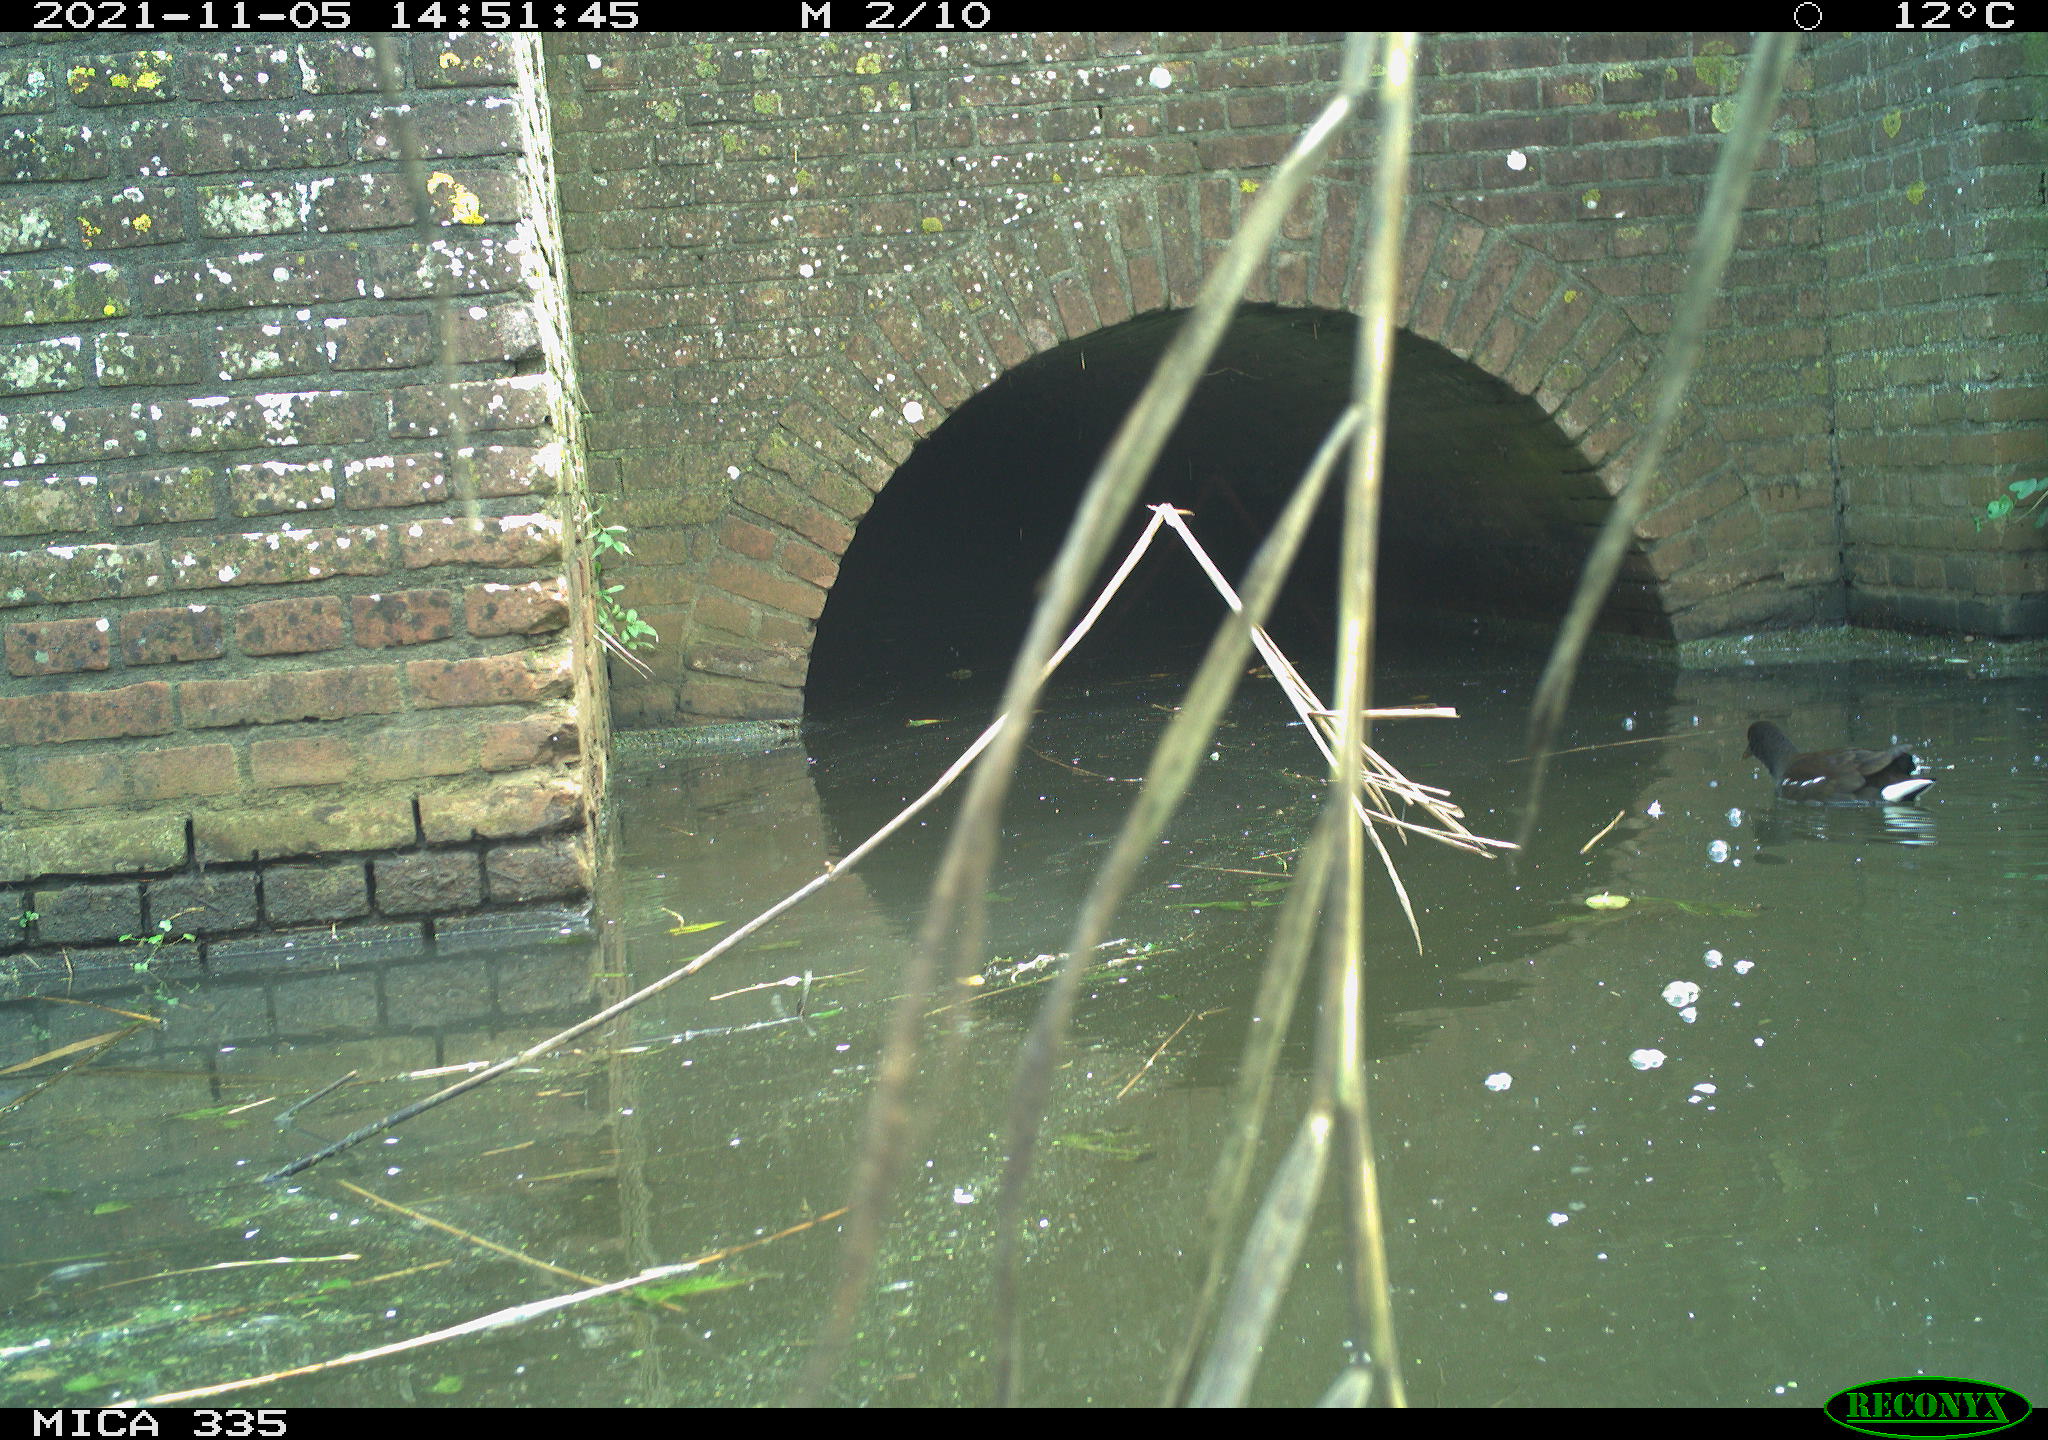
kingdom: Animalia
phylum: Chordata
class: Aves
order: Gruiformes
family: Rallidae
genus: Gallinula
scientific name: Gallinula chloropus
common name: Common moorhen
